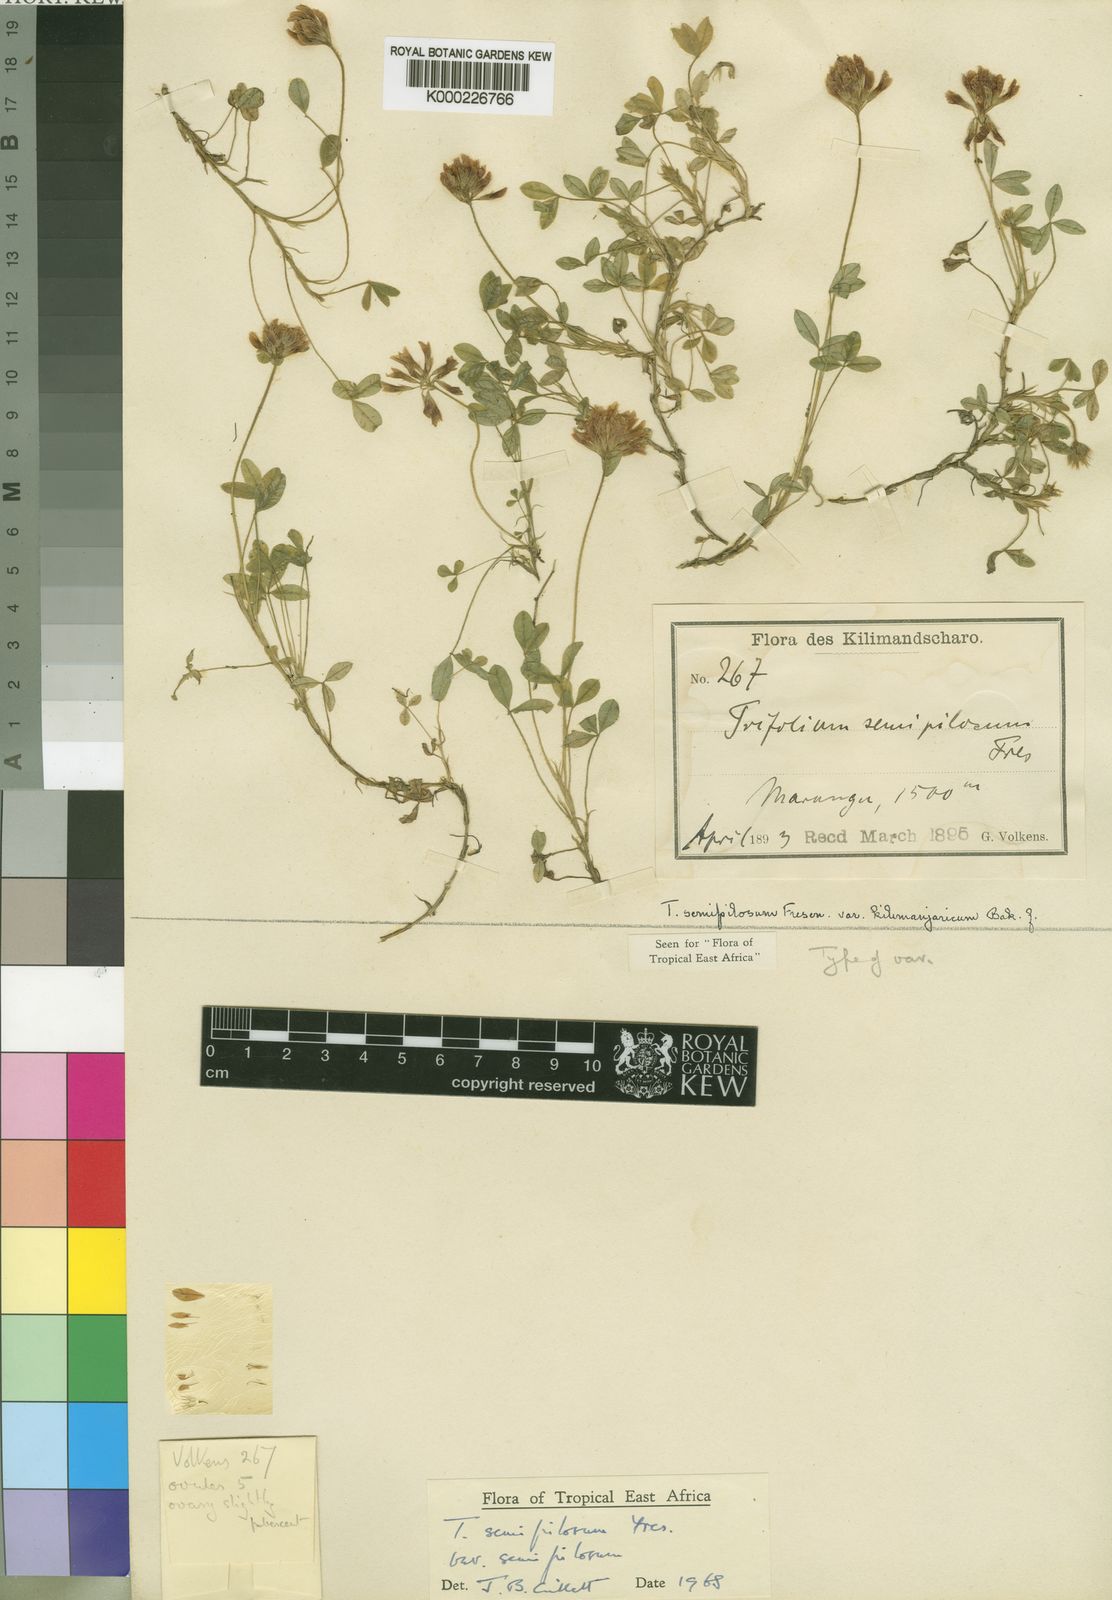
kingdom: Plantae
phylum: Tracheophyta
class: Magnoliopsida
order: Fabales
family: Fabaceae
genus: Trifolium
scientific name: Trifolium semipilosum
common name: Kenya clover
